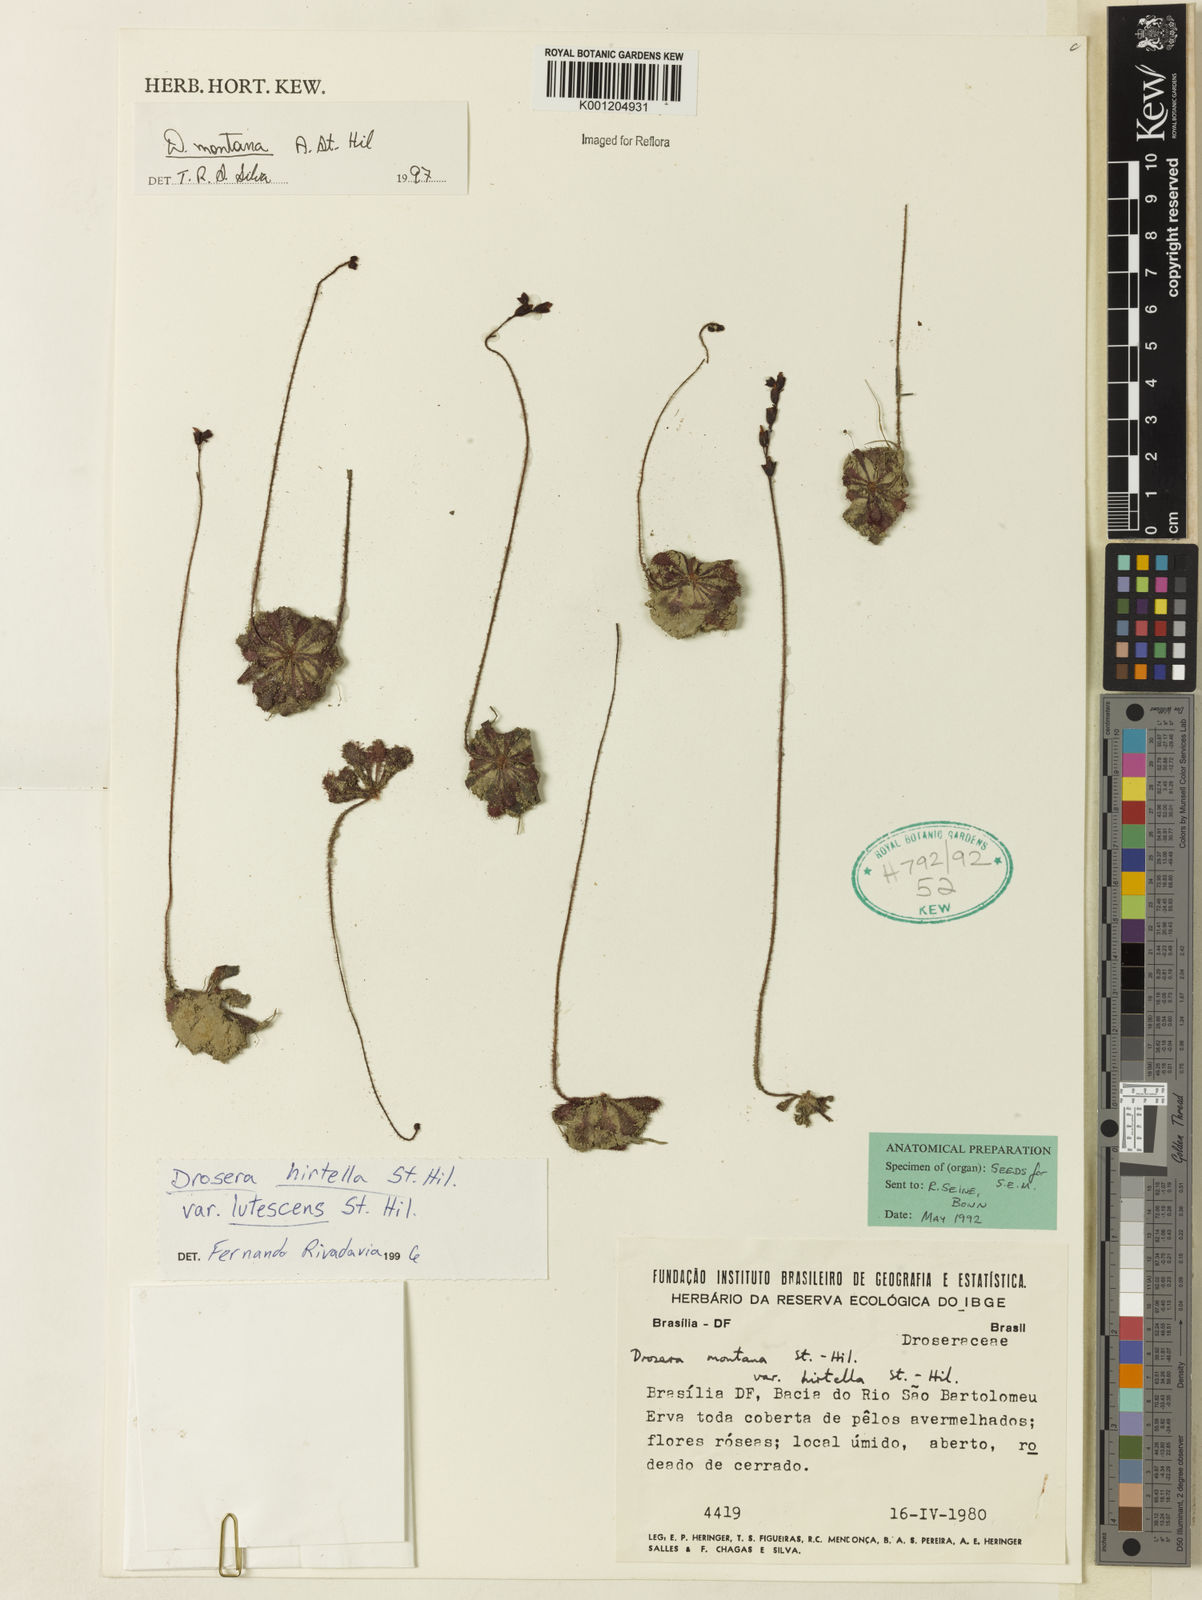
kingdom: Plantae
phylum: Tracheophyta
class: Magnoliopsida
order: Caryophyllales
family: Droseraceae
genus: Drosera
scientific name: Drosera montana
